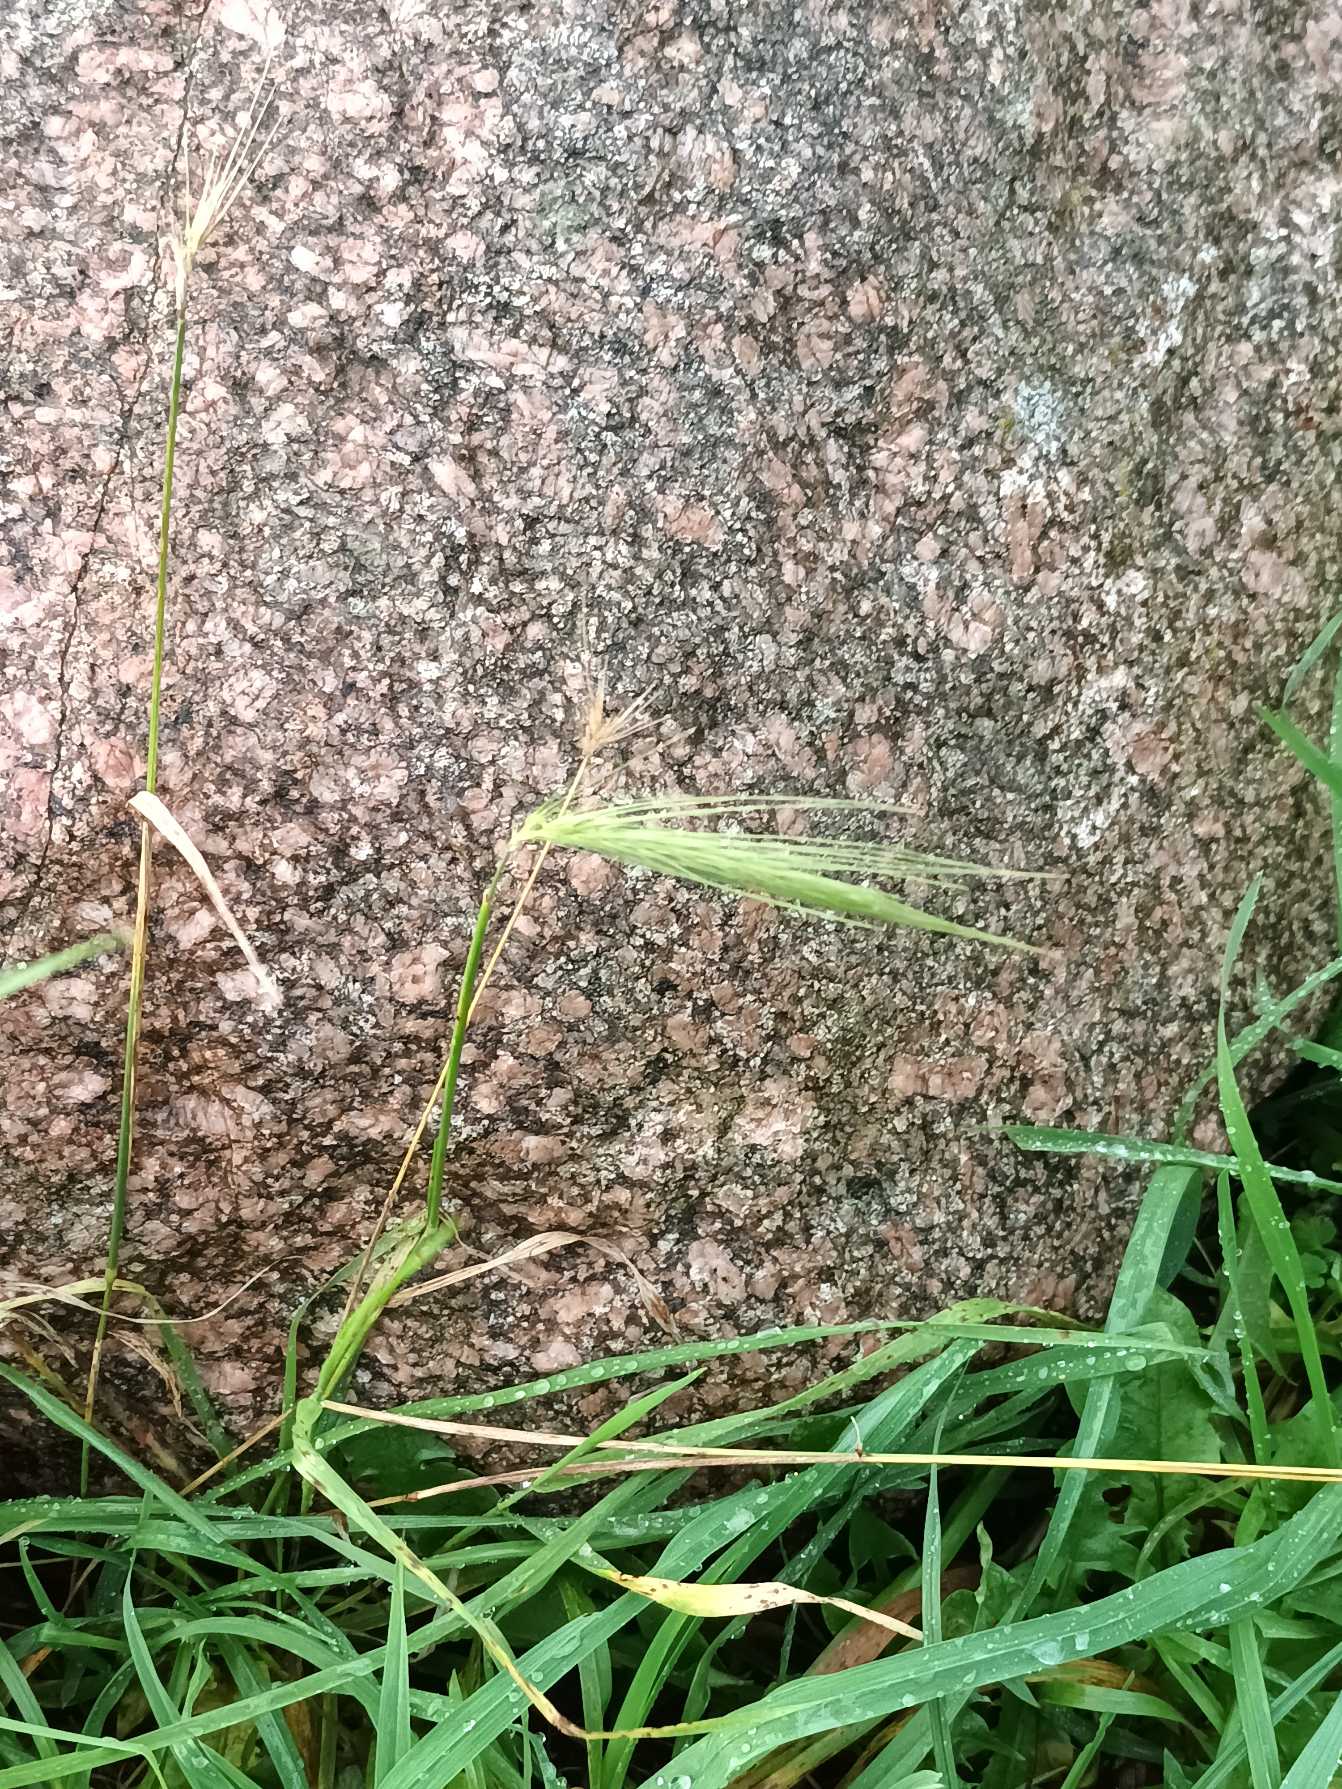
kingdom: Plantae
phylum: Tracheophyta
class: Liliopsida
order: Poales
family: Poaceae
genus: Hordeum
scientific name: Hordeum murinum
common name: Gold byg
